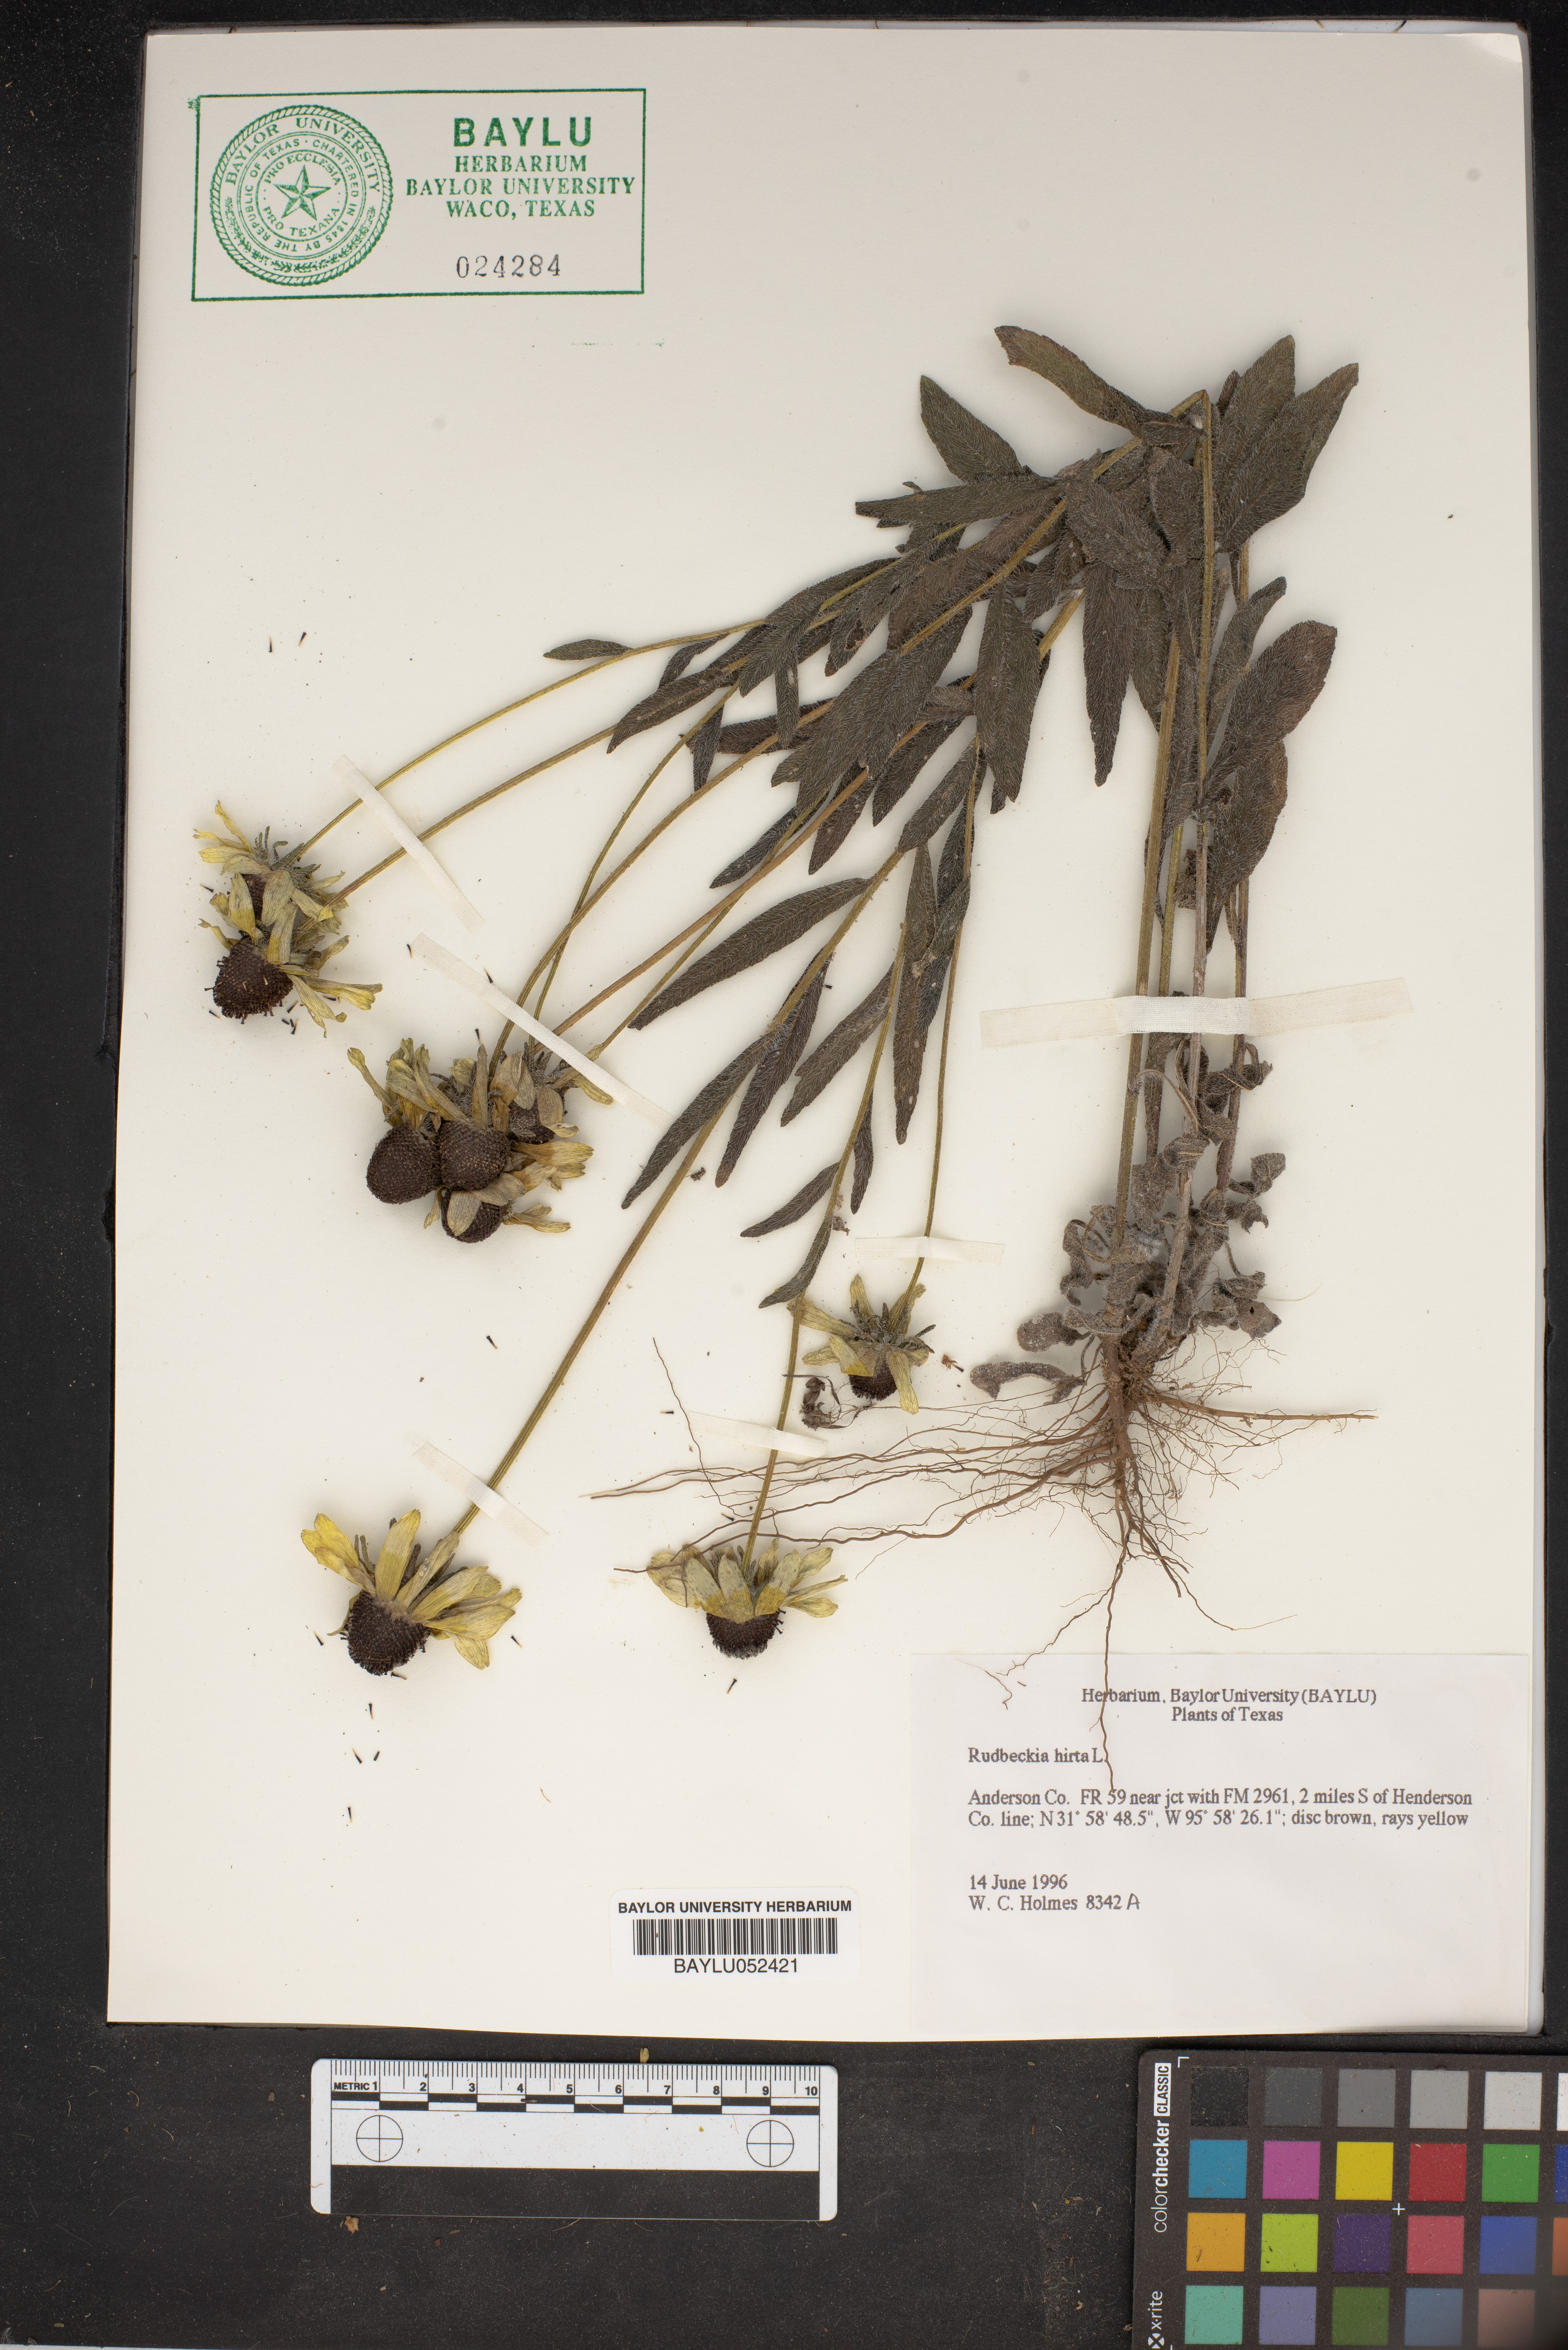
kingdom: Plantae
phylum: Tracheophyta
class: Magnoliopsida
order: Asterales
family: Asteraceae
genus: Rudbeckia
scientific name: Rudbeckia hirta
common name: Black-eyed-susan
